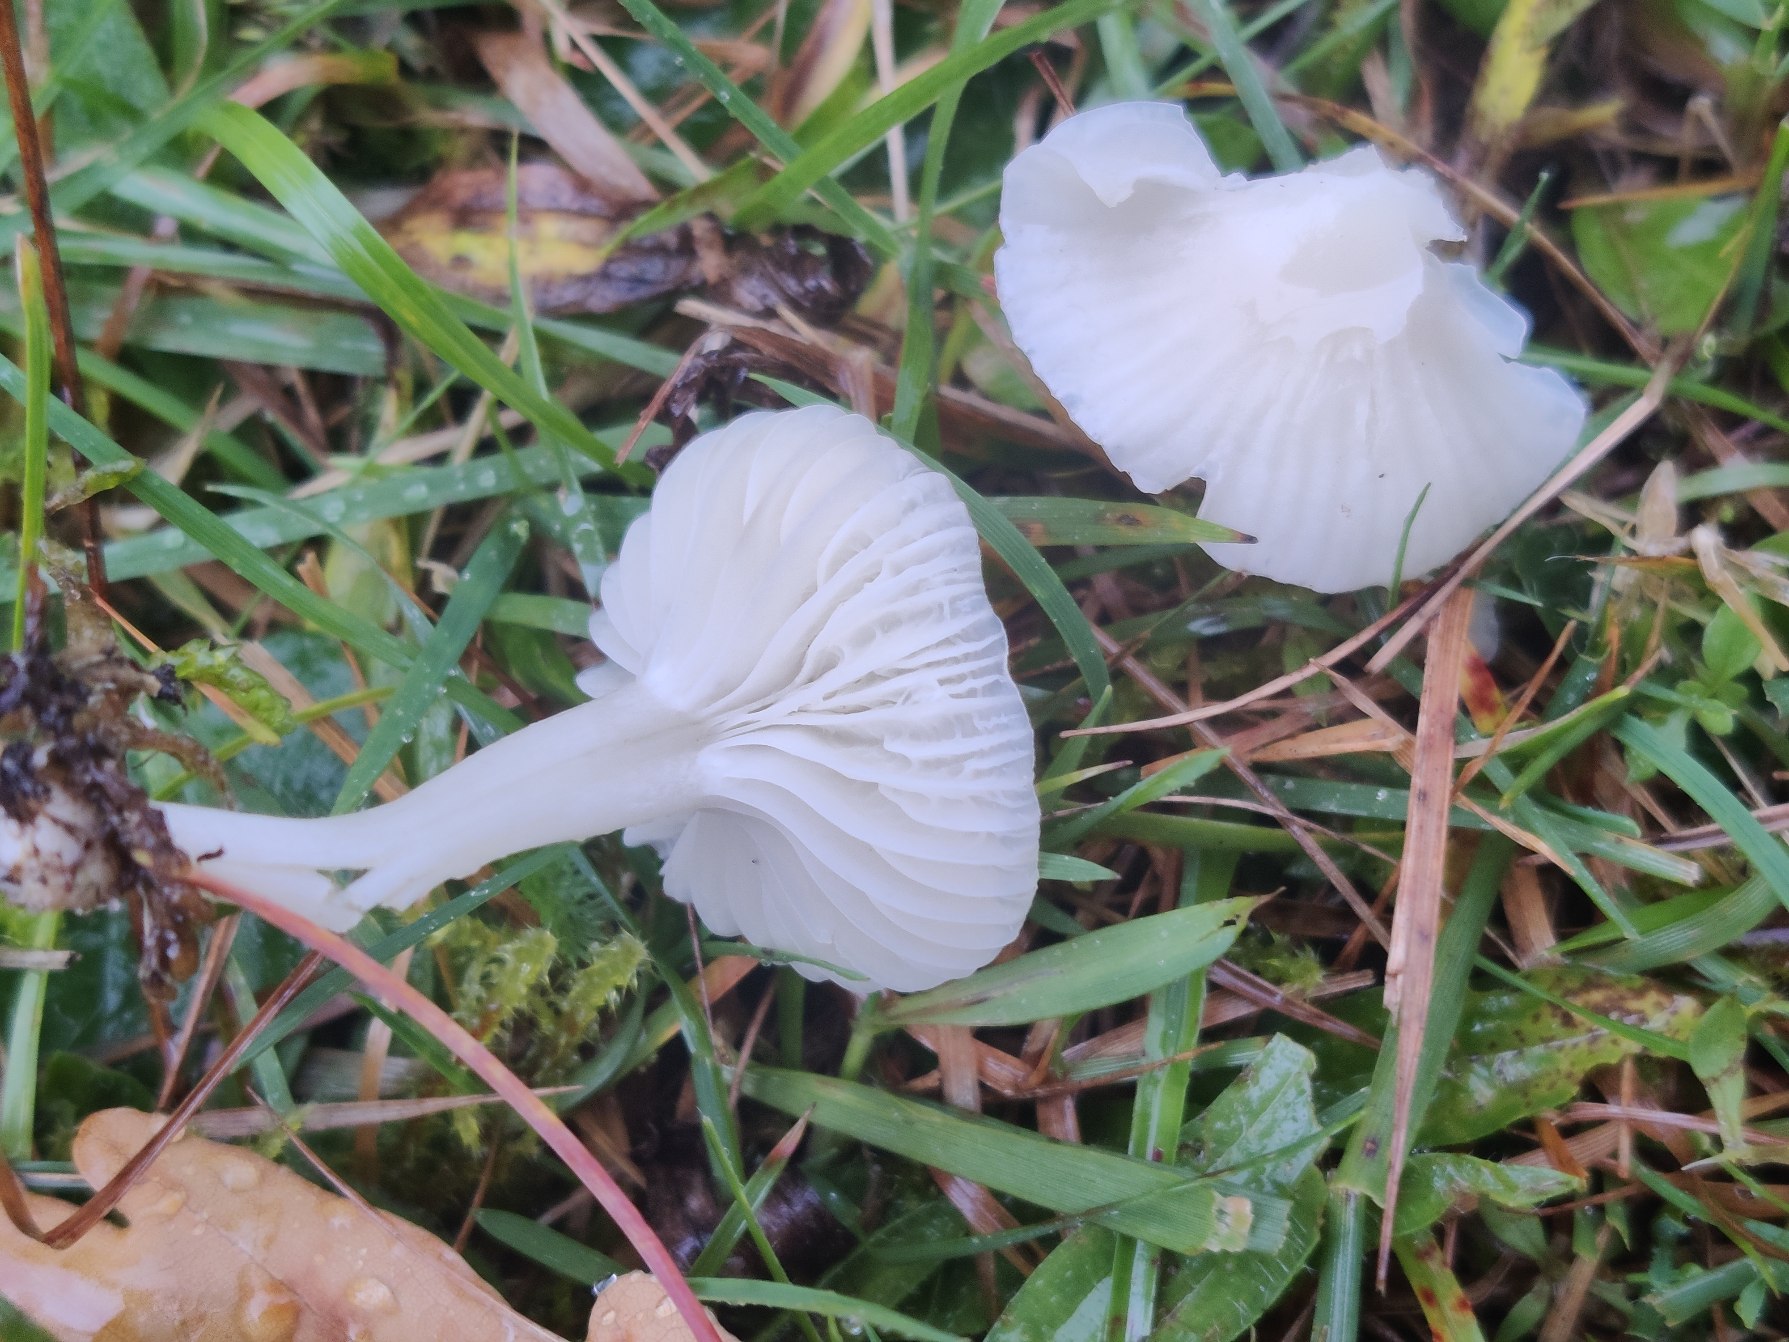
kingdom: Fungi
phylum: Basidiomycota
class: Agaricomycetes
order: Agaricales
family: Hygrophoraceae
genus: Cuphophyllus
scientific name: Cuphophyllus virgineus
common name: Snehvid vokshat
